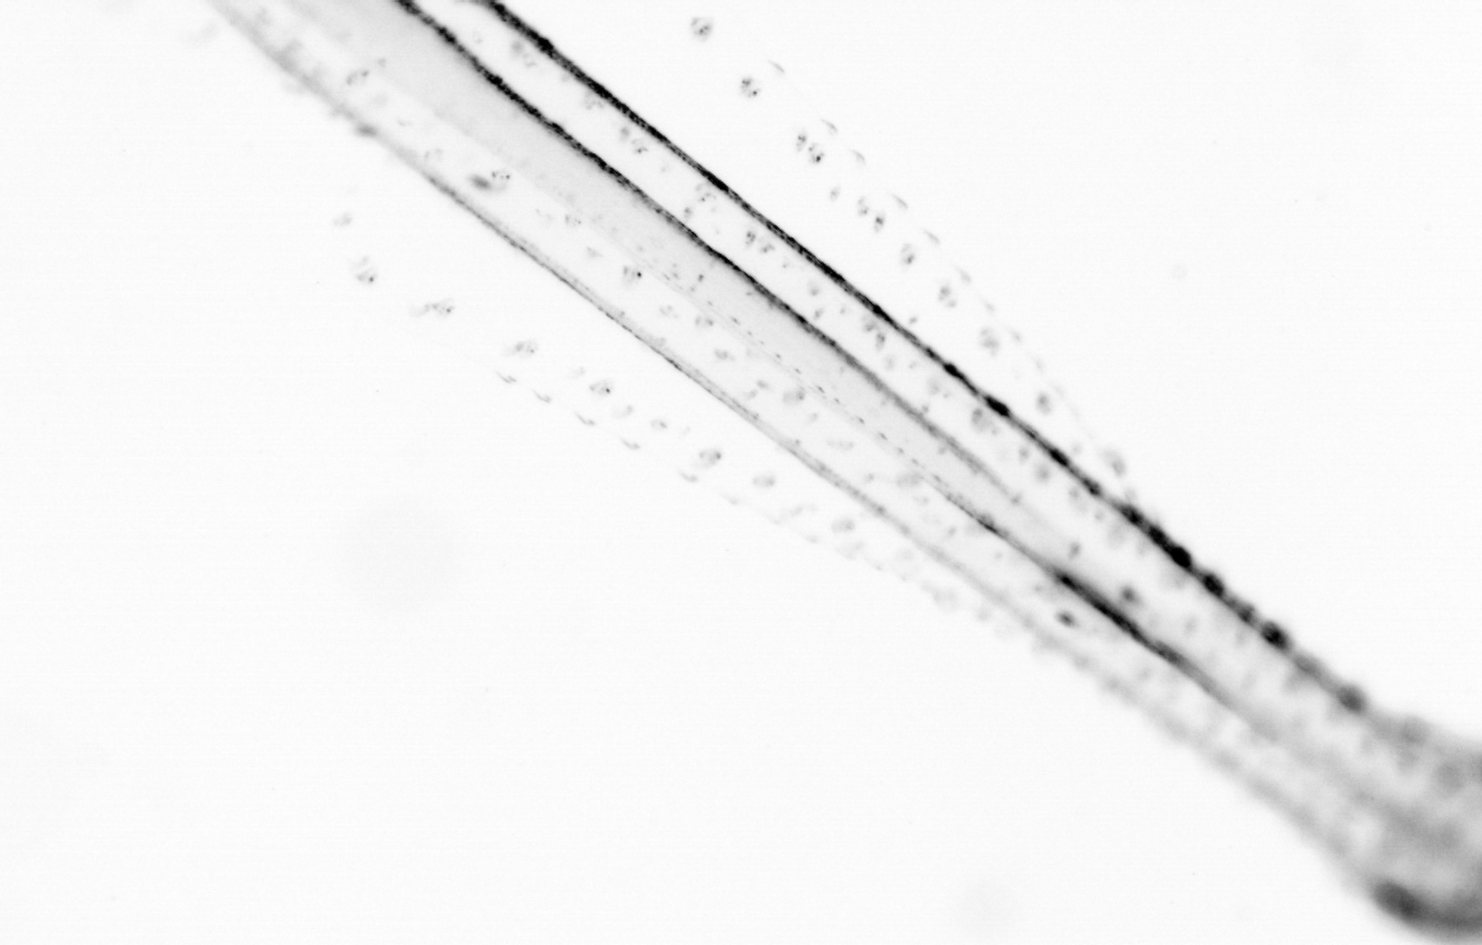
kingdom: Animalia
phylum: Chaetognatha
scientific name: Chaetognatha
